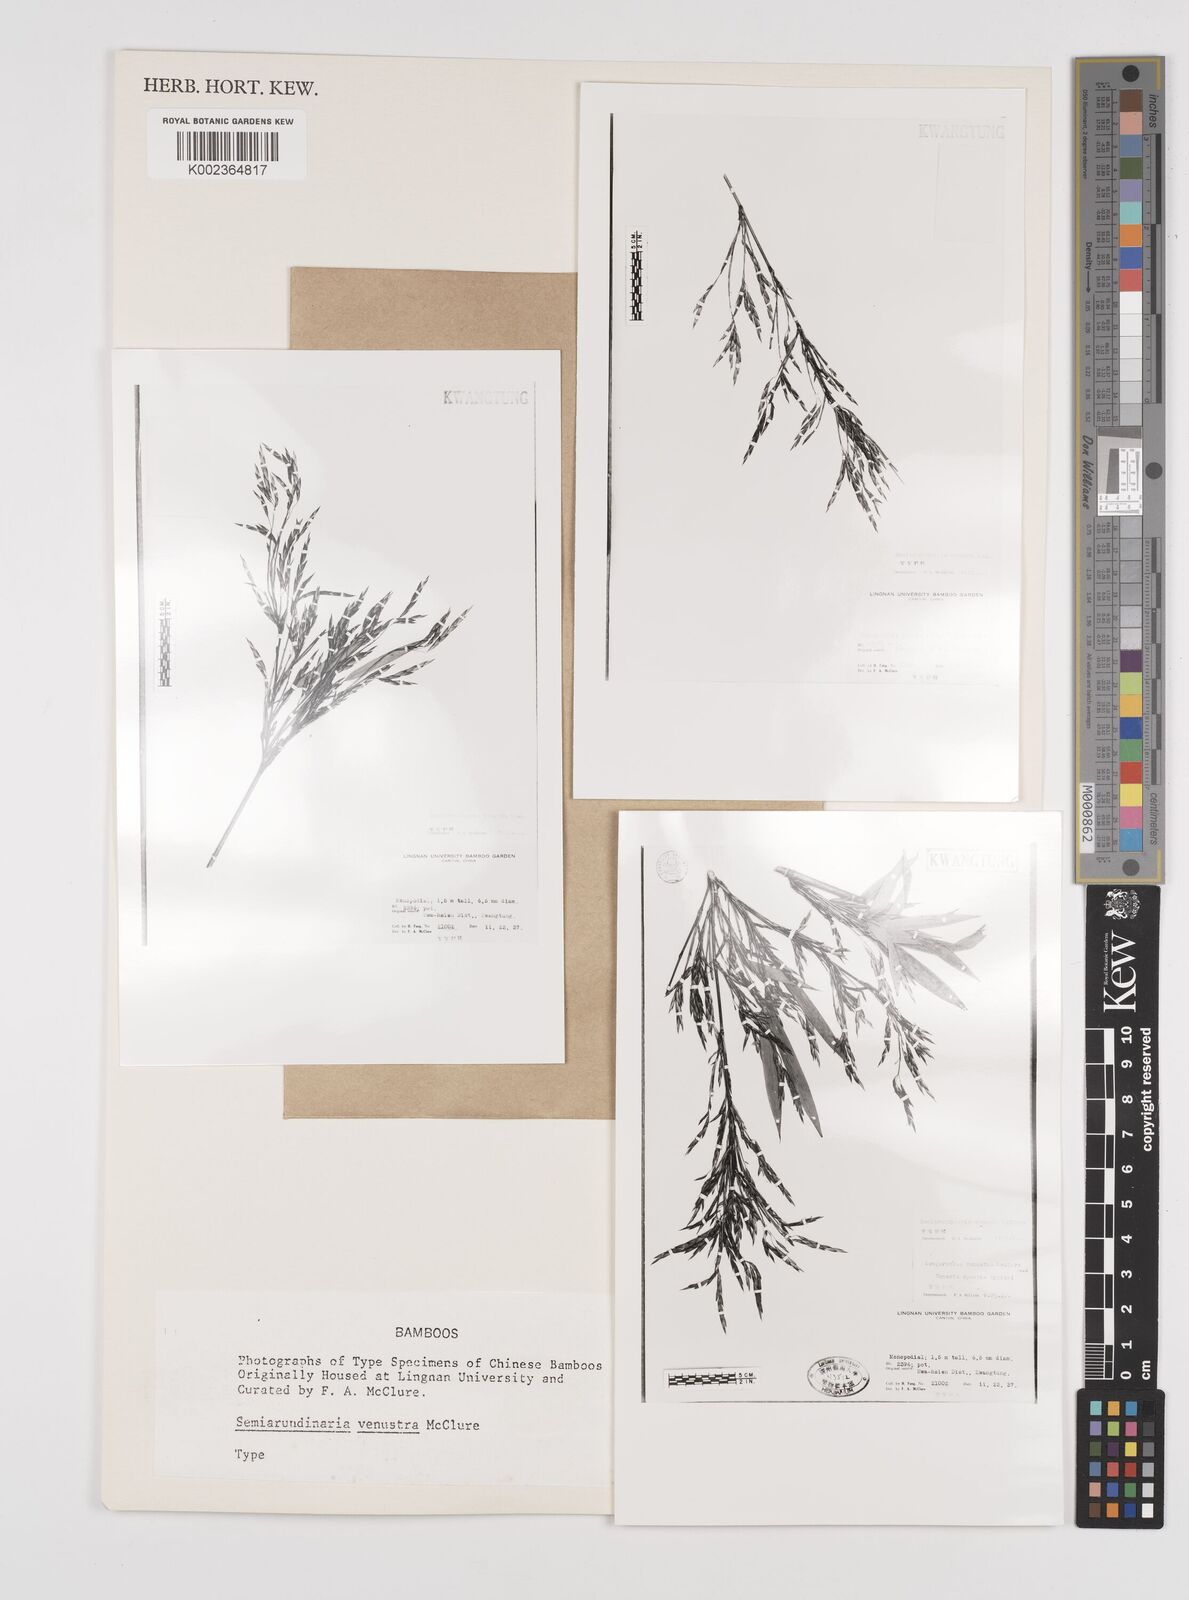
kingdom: Plantae
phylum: Tracheophyta
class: Liliopsida
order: Poales
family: Poaceae
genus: Semiarundinaria
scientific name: Semiarundinaria fastuosa
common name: Narihira bamboo
